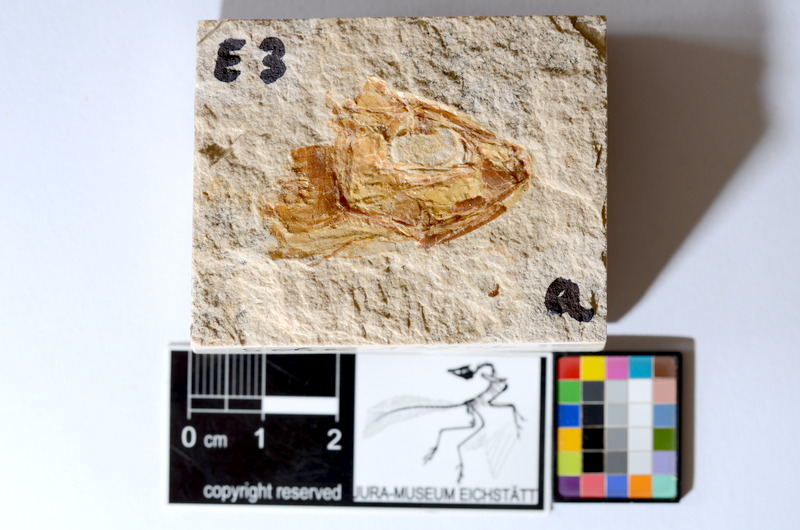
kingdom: Animalia
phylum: Chordata
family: Ascalaboidae
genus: Tharsis
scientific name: Tharsis dubius
